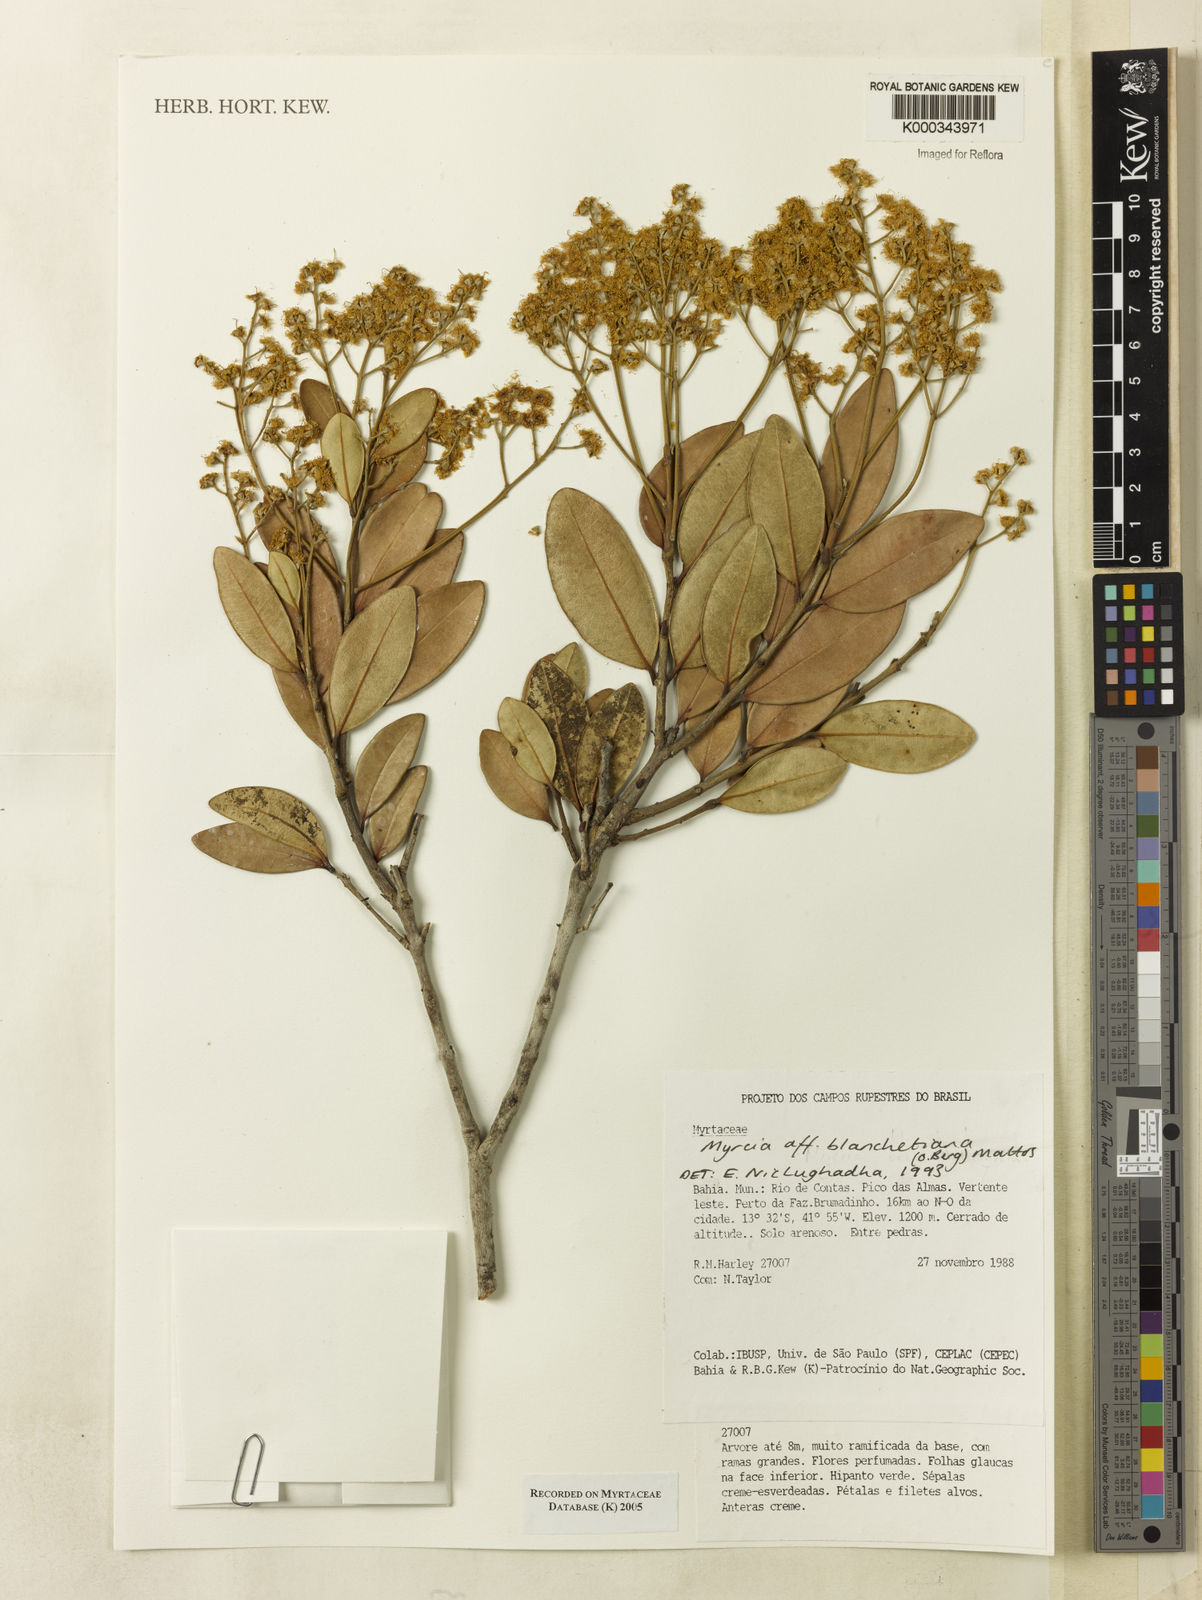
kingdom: Plantae
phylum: Tracheophyta
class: Magnoliopsida
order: Myrtales
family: Myrtaceae
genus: Myrcia
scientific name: Myrcia blanchetiana
